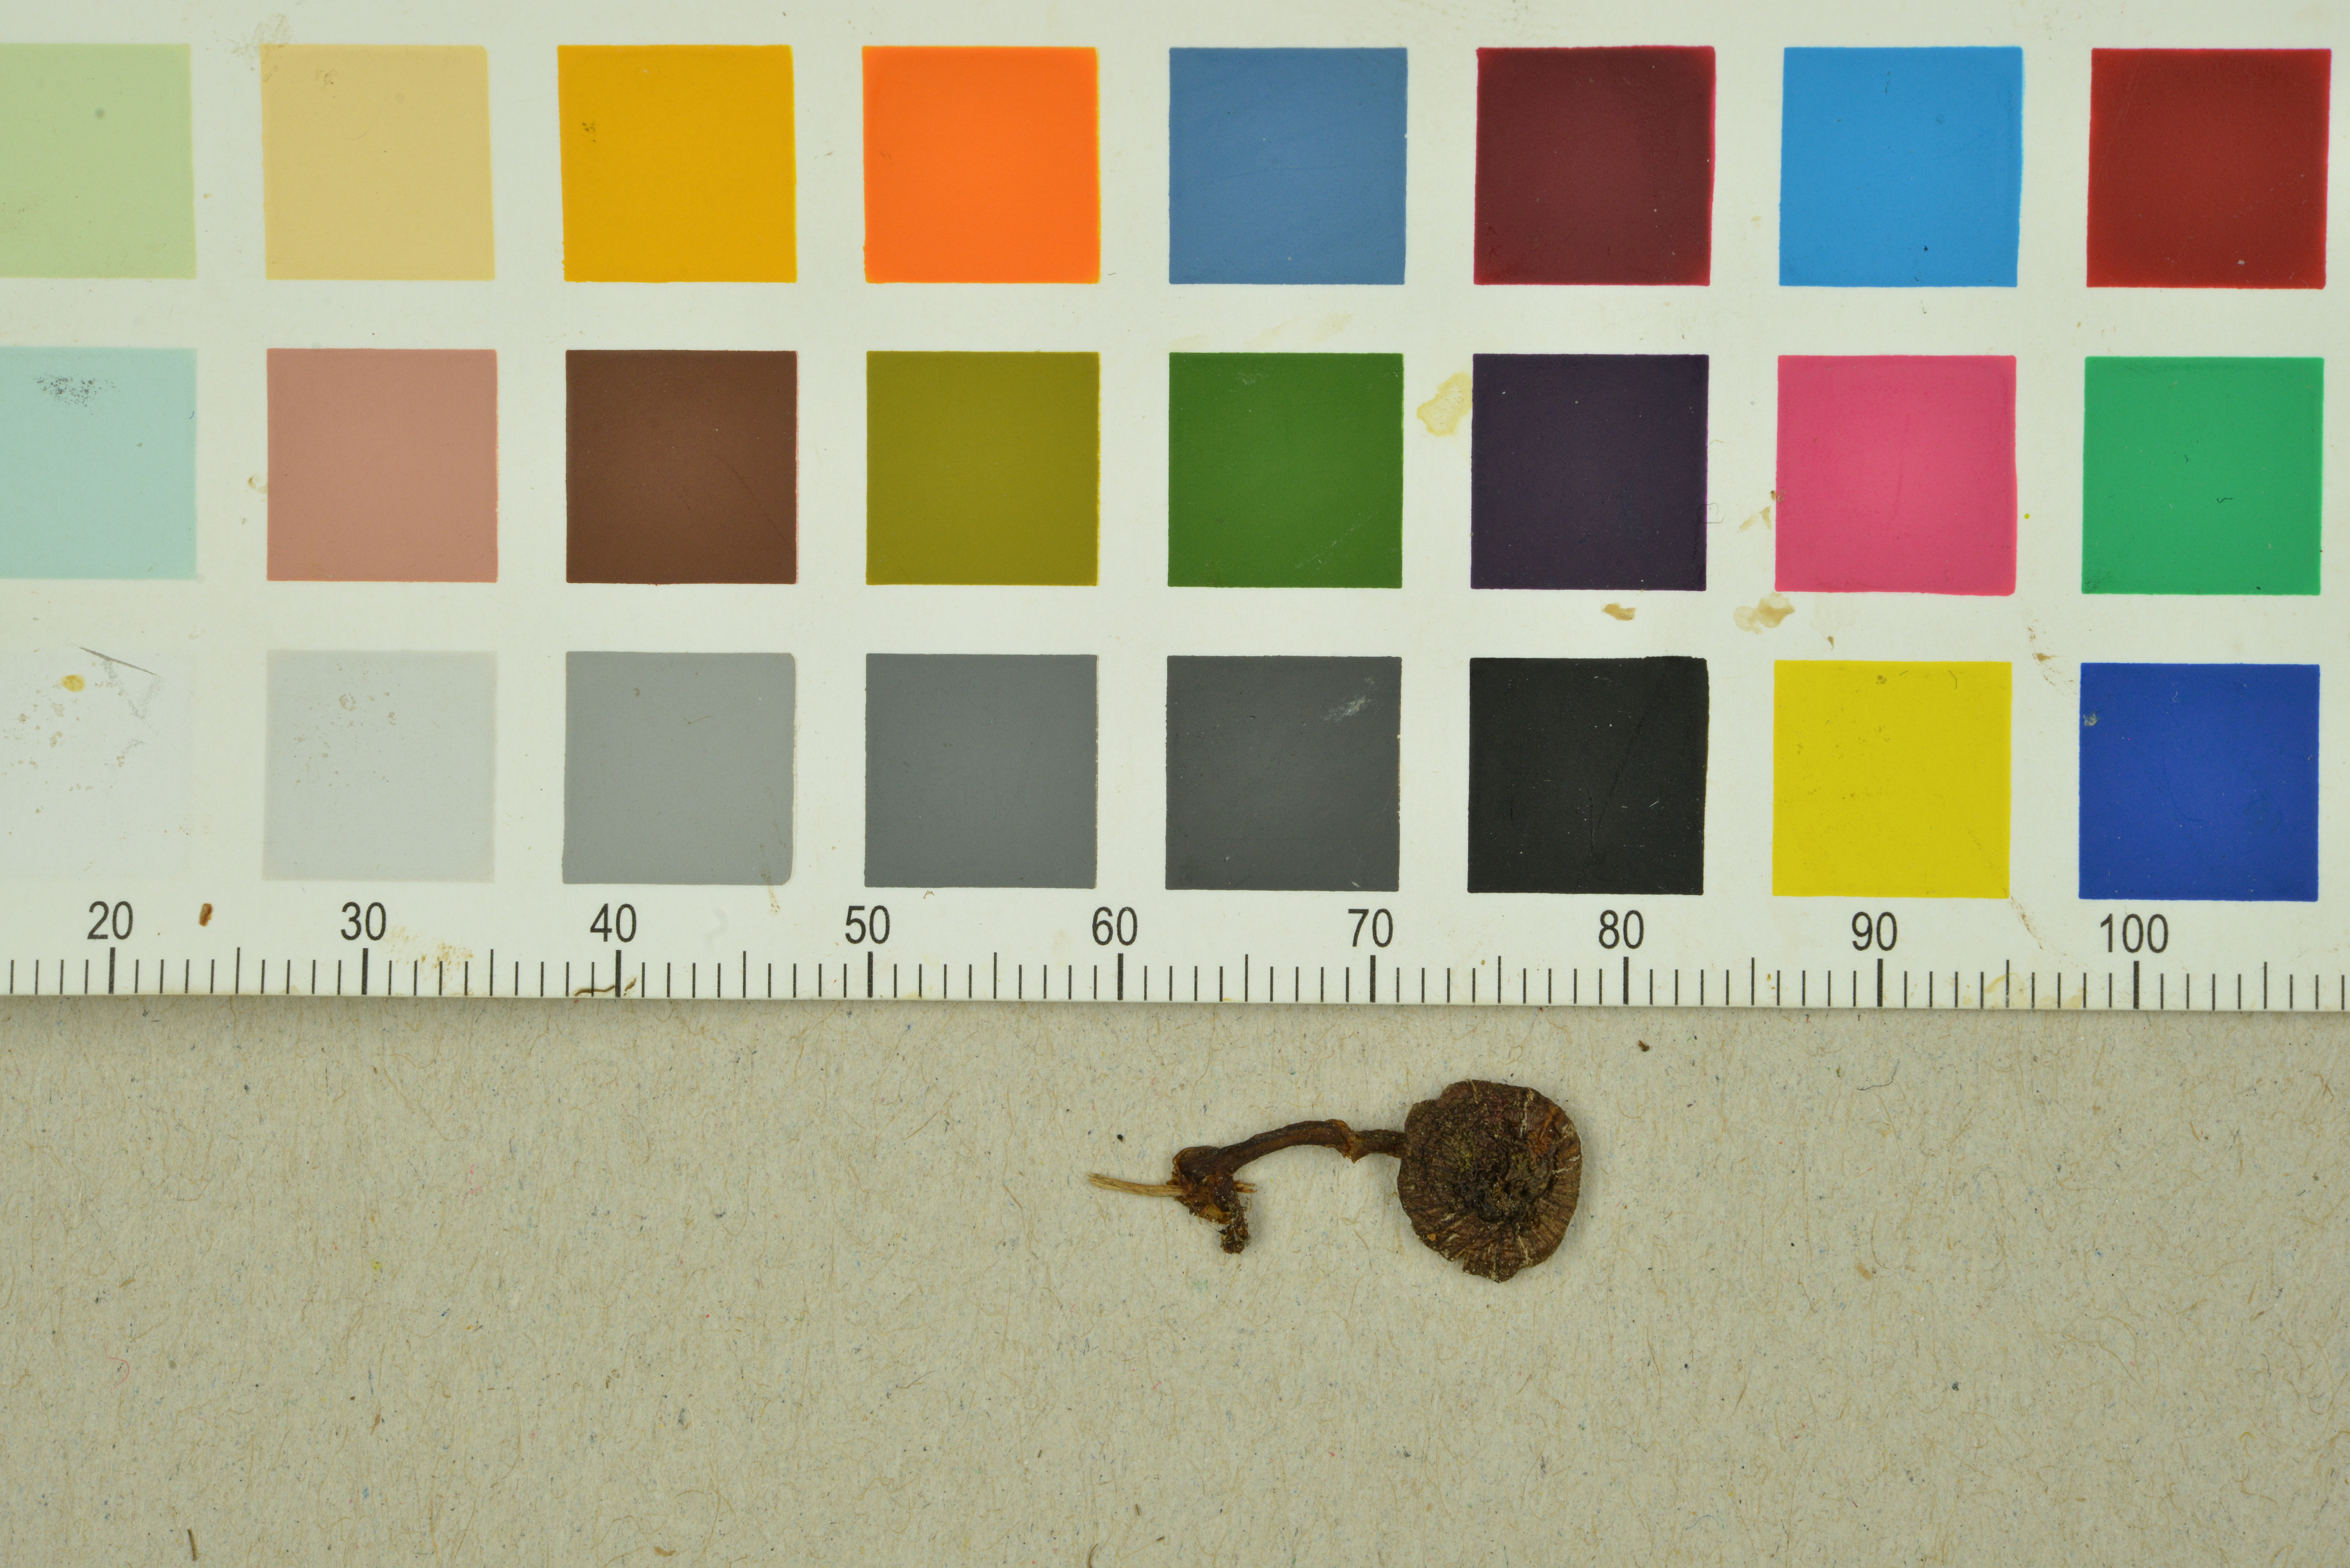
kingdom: Fungi
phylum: Basidiomycota
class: Agaricomycetes
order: Agaricales
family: Entolomataceae
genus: Entoloma
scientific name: Entoloma subcuboideum
